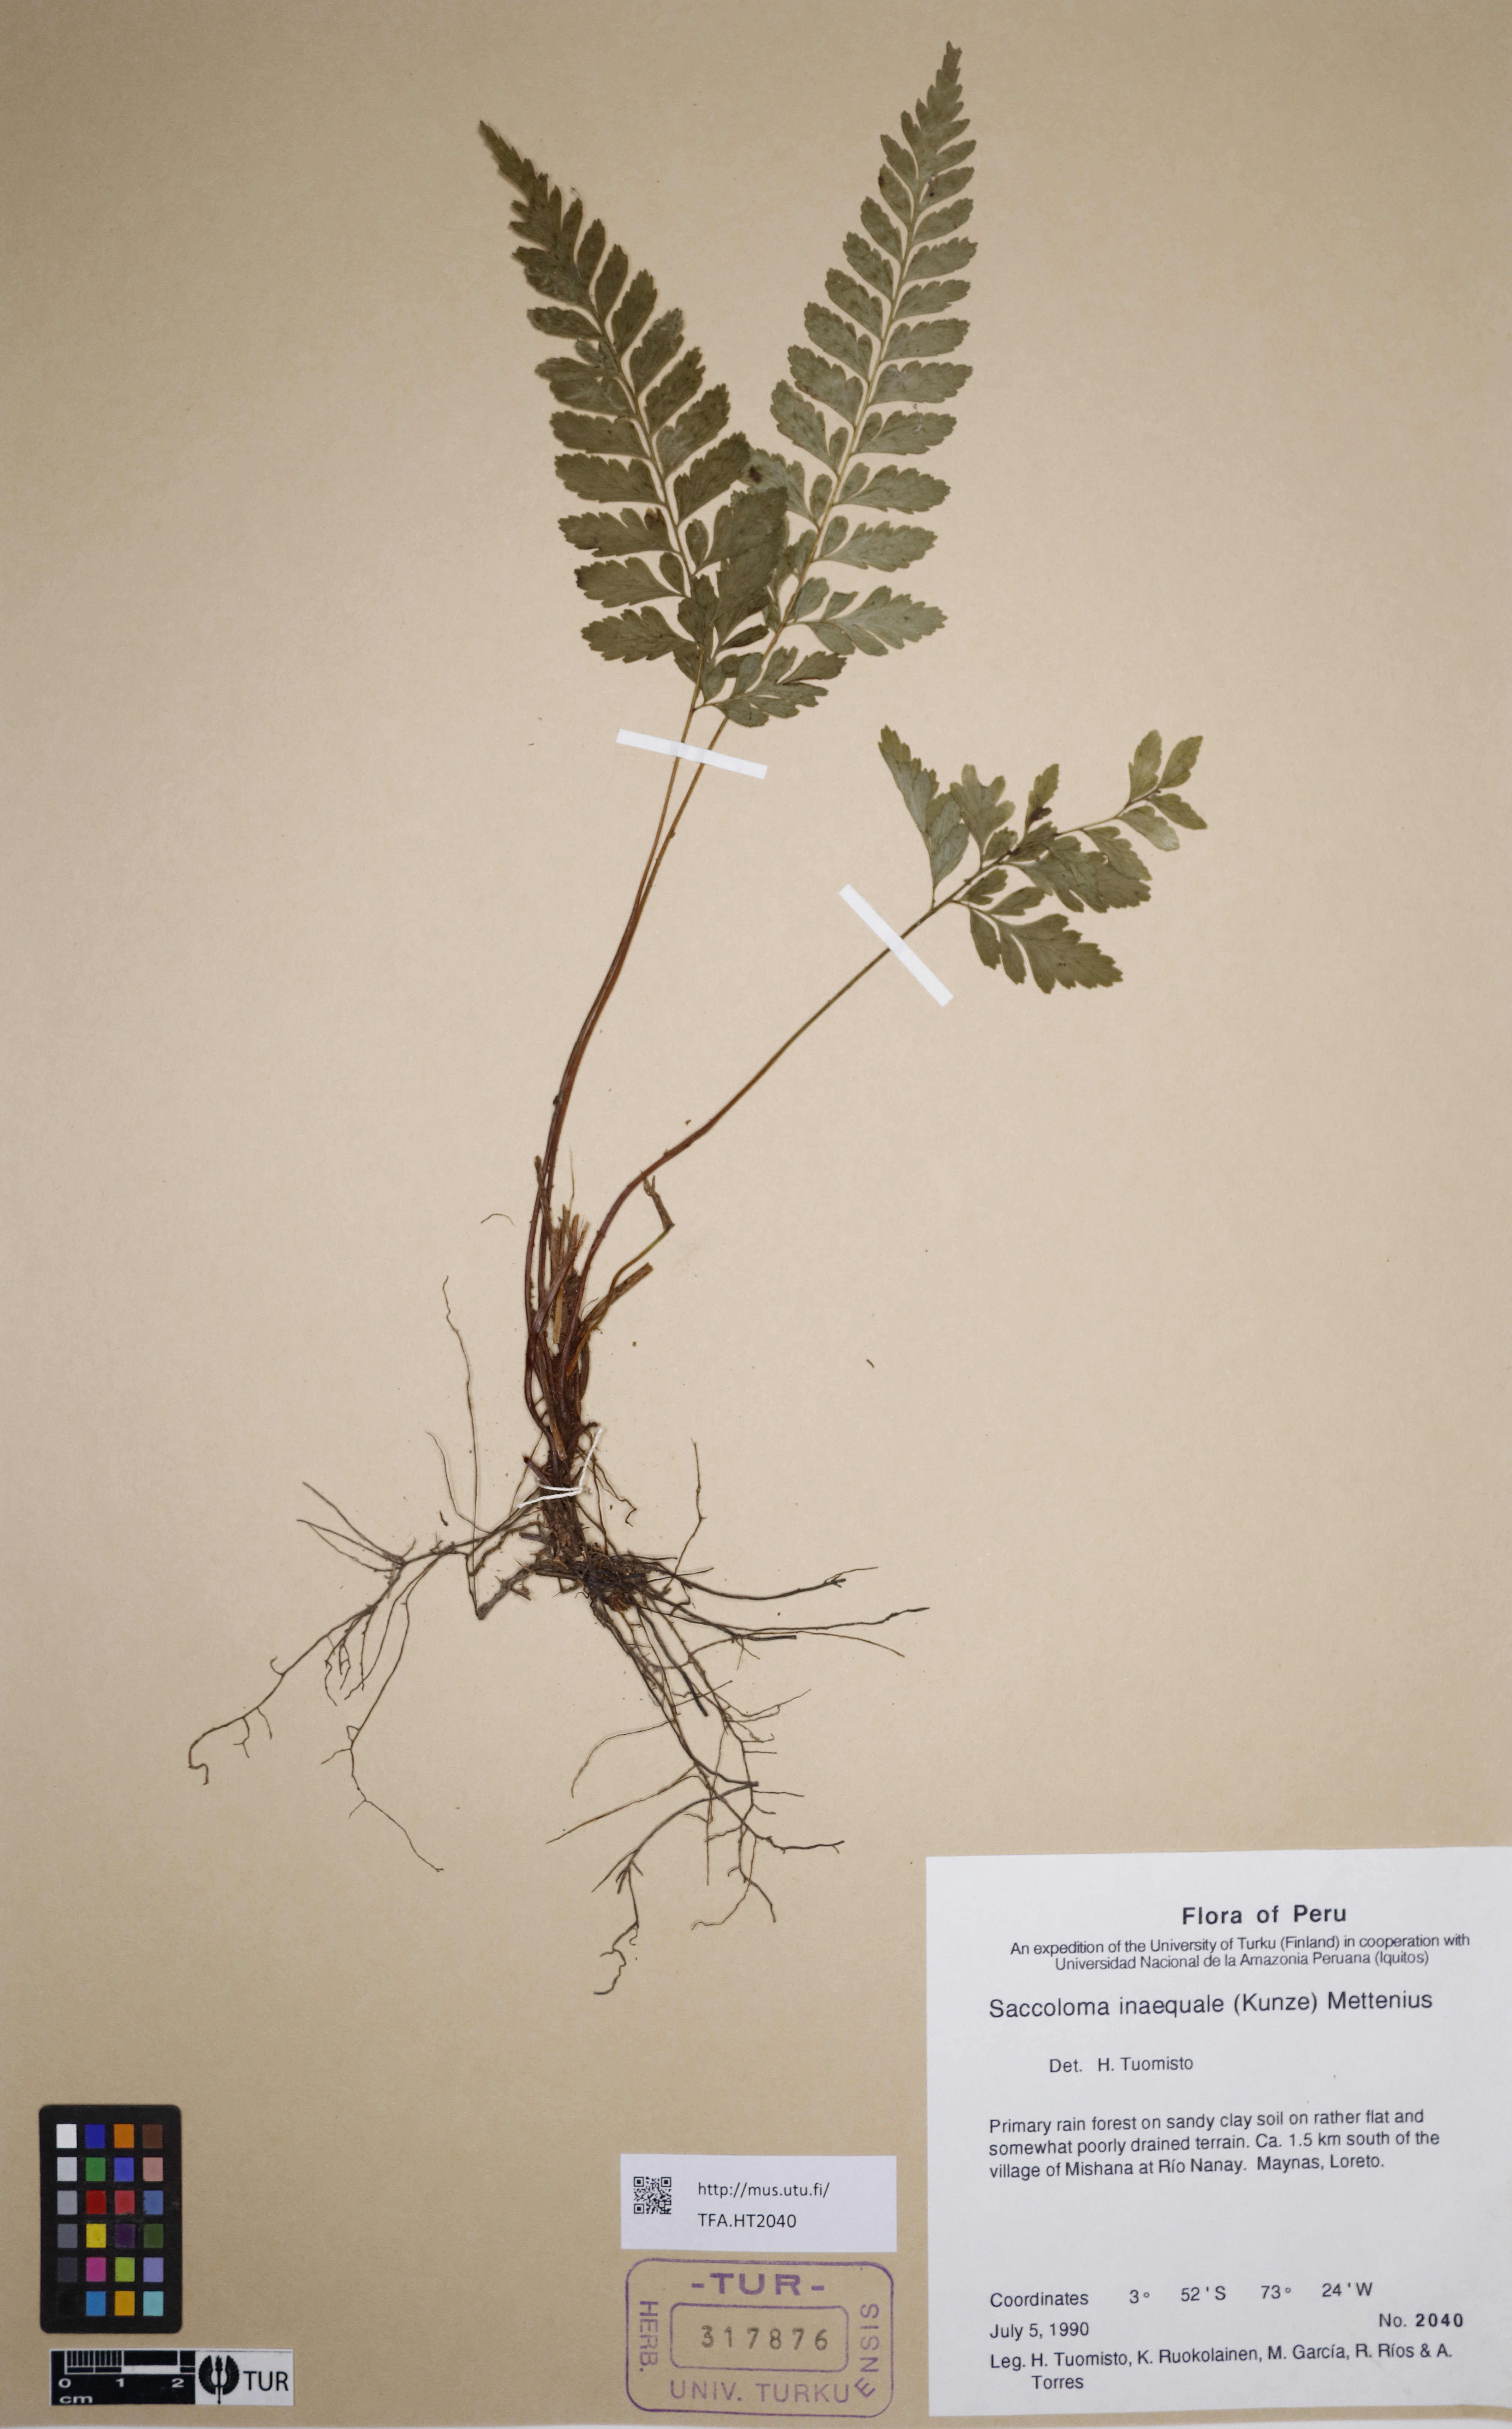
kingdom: Plantae
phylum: Tracheophyta
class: Polypodiopsida
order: Polypodiales
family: Saccolomataceae
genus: Saccoloma
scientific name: Saccoloma inaequale
